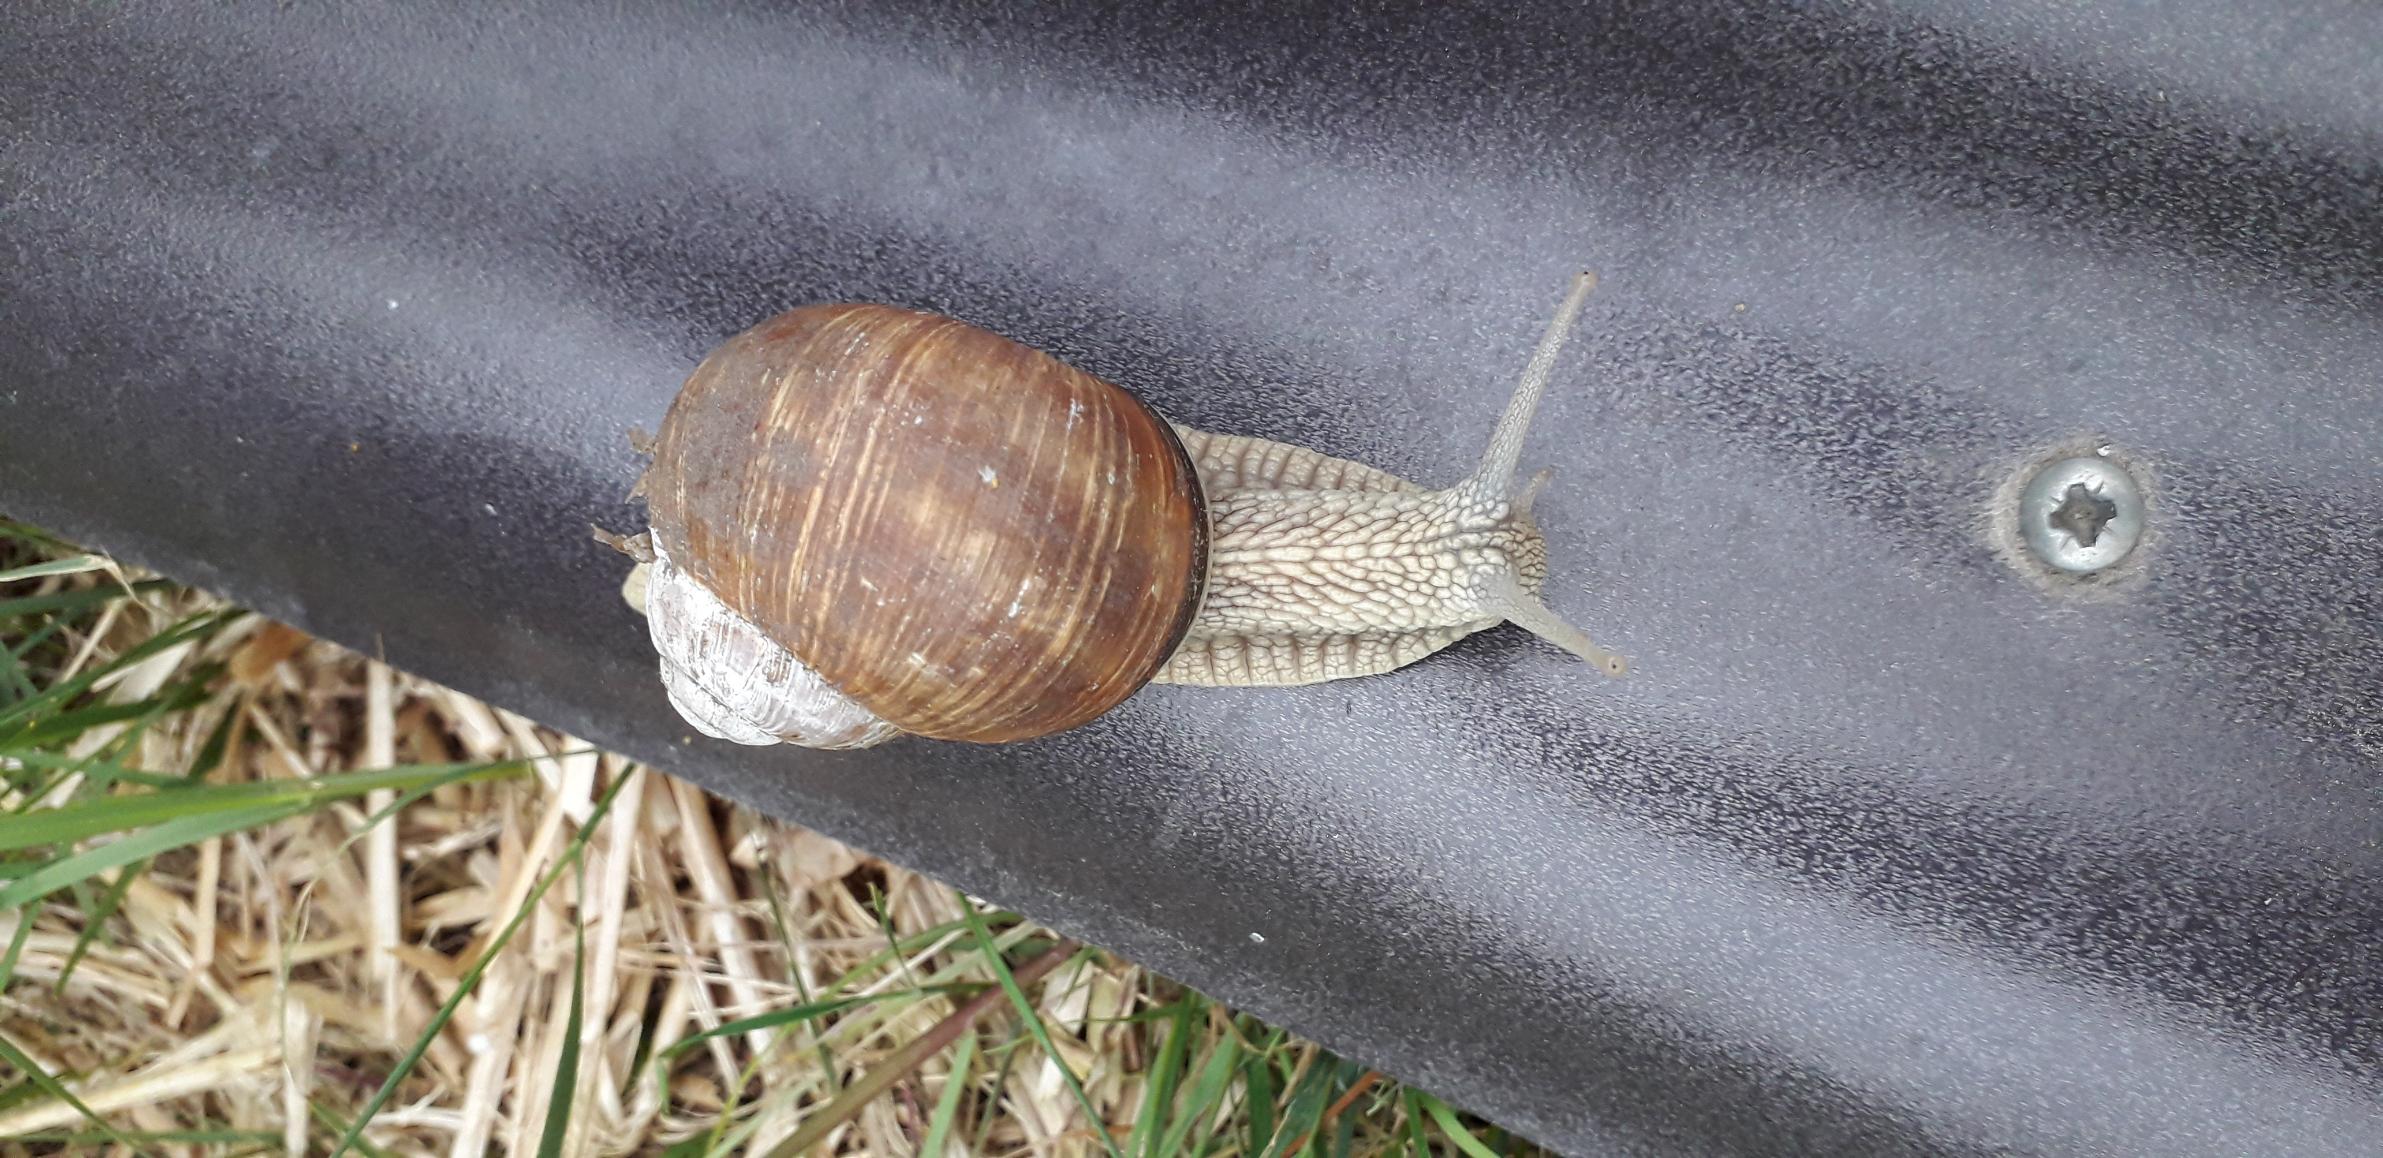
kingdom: Animalia
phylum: Mollusca
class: Gastropoda
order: Stylommatophora
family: Helicidae
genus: Helix
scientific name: Helix pomatia
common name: Vinbjergsnegl
